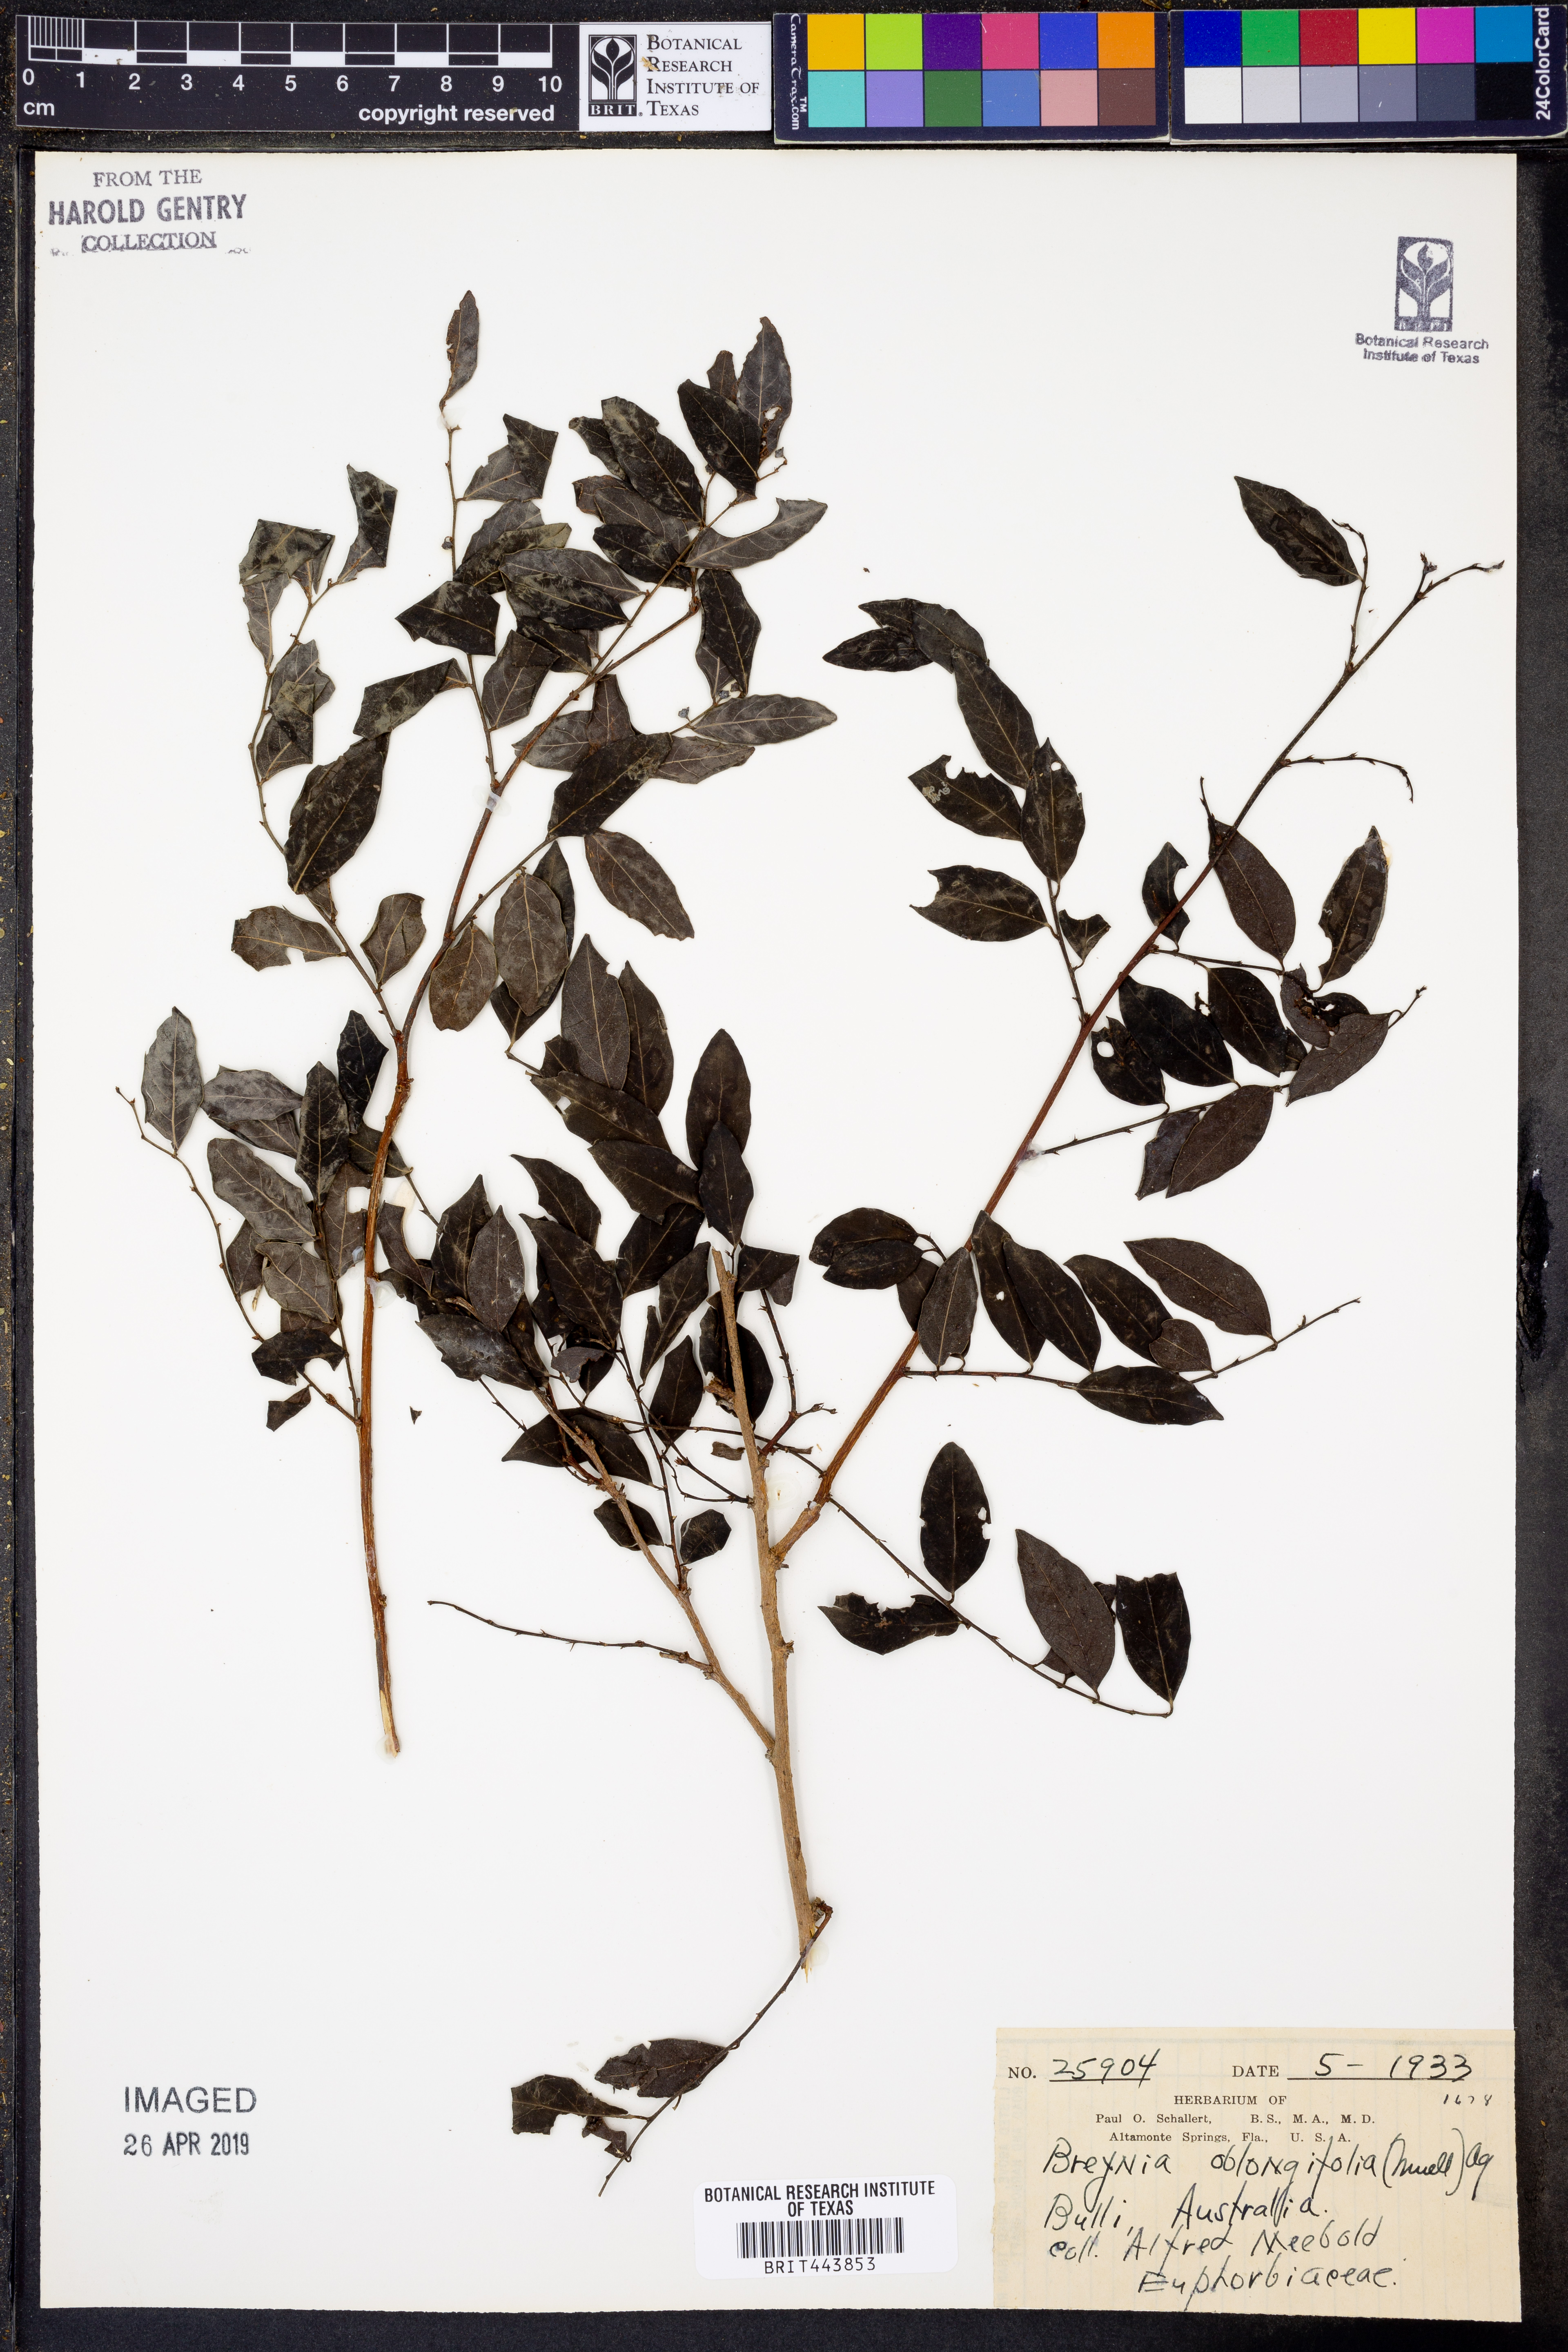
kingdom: Plantae
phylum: Tracheophyta
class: Magnoliopsida
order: Malpighiales
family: Phyllanthaceae
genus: Breynia
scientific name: Breynia oblongifolia
